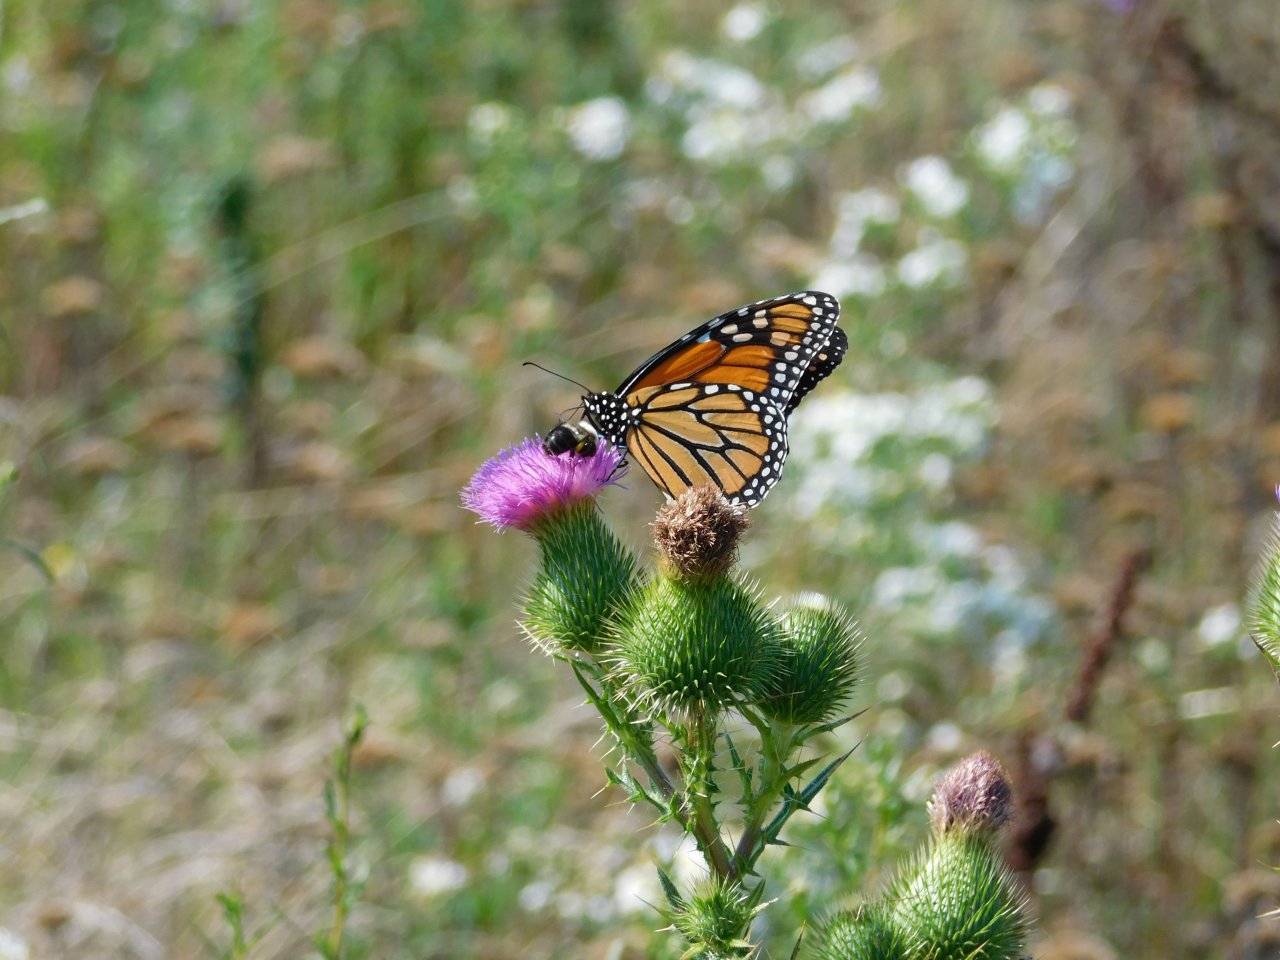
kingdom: Animalia
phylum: Arthropoda
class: Insecta
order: Lepidoptera
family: Nymphalidae
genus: Danaus
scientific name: Danaus plexippus
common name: Monarch
